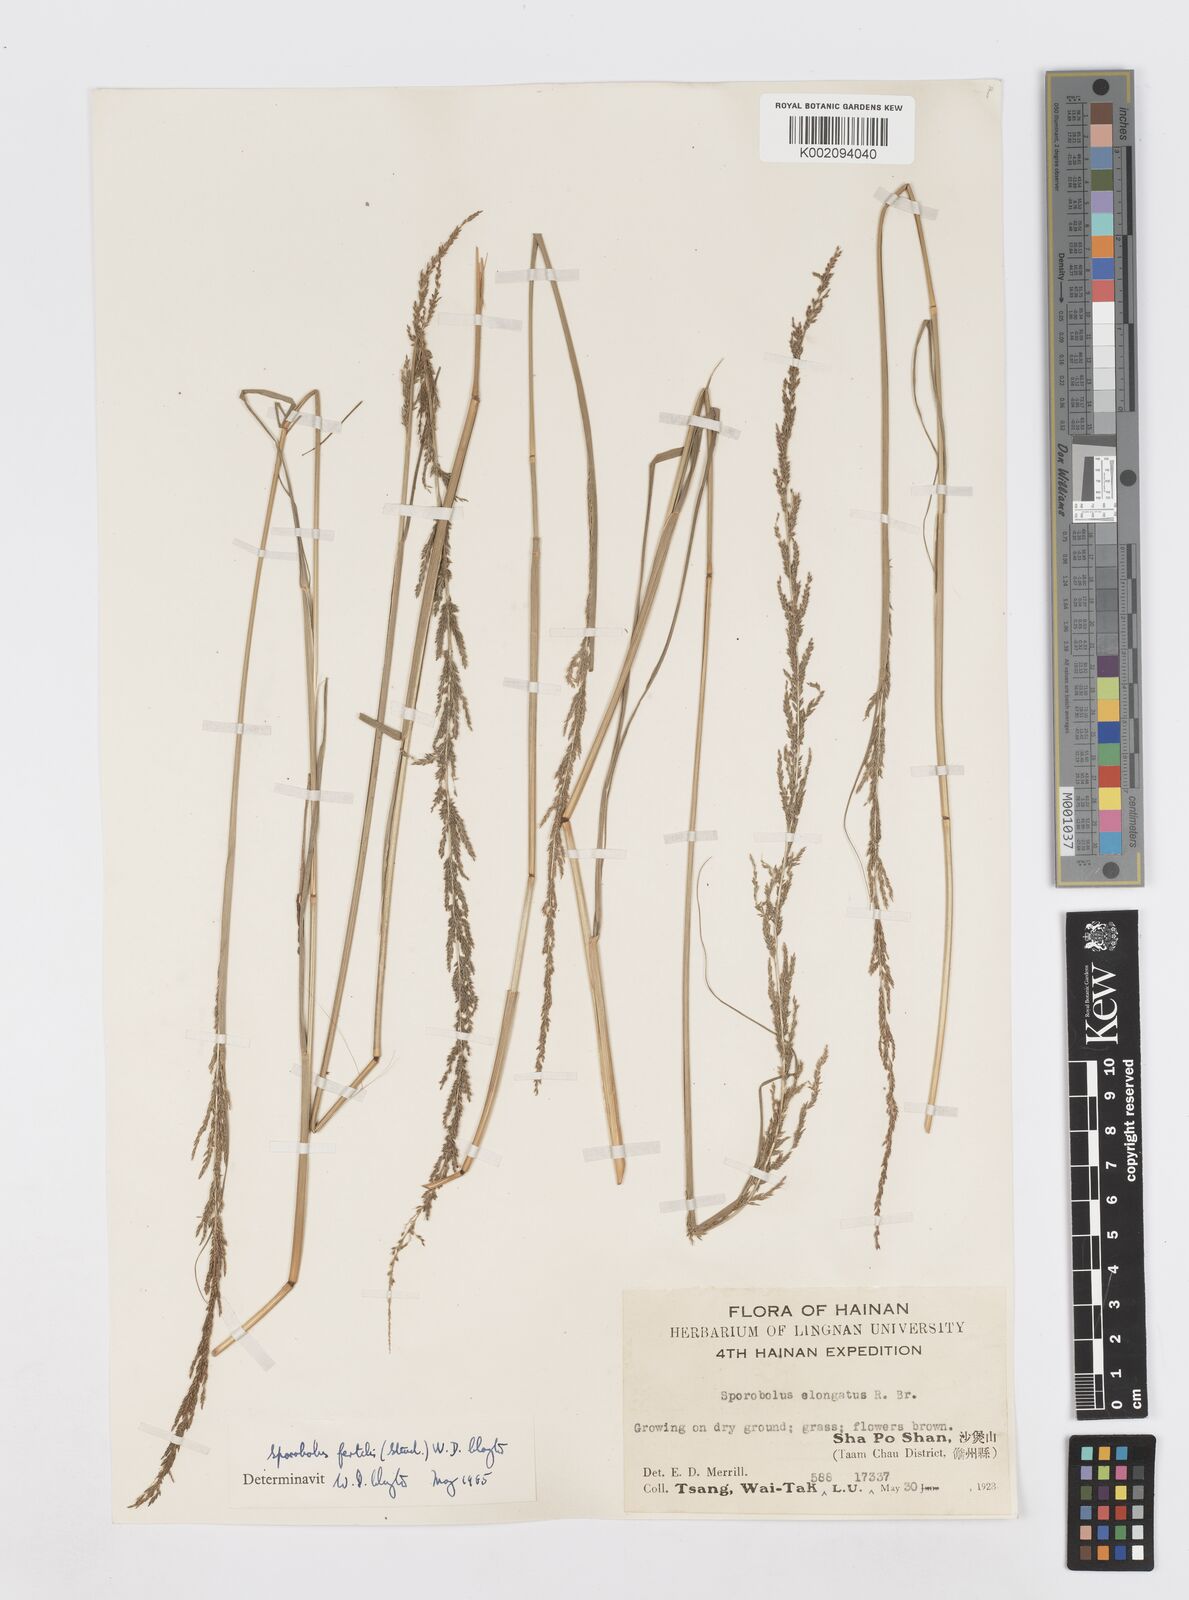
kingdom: Plantae
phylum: Tracheophyta
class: Liliopsida
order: Poales
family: Poaceae
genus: Sporobolus
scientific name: Sporobolus fertilis
